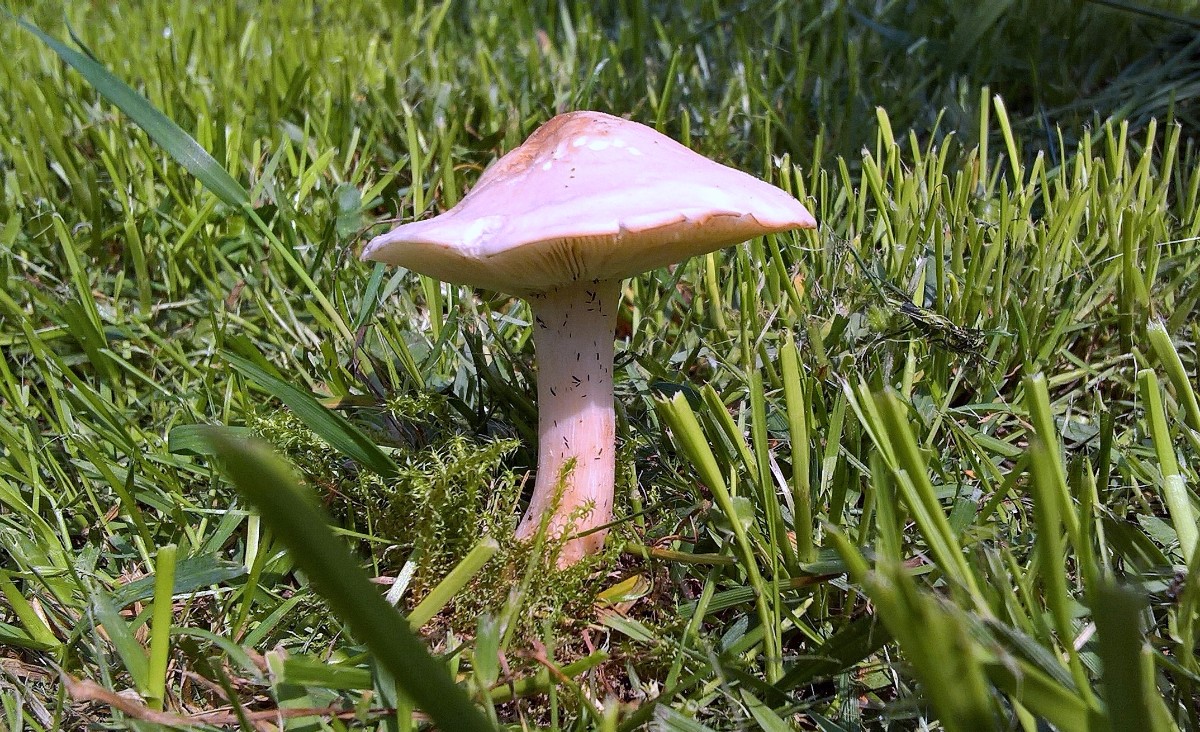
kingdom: Fungi
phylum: Basidiomycota
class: Agaricomycetes
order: Agaricales
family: Lyophyllaceae
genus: Calocybe
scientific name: Calocybe gambosa
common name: vårmusseron
